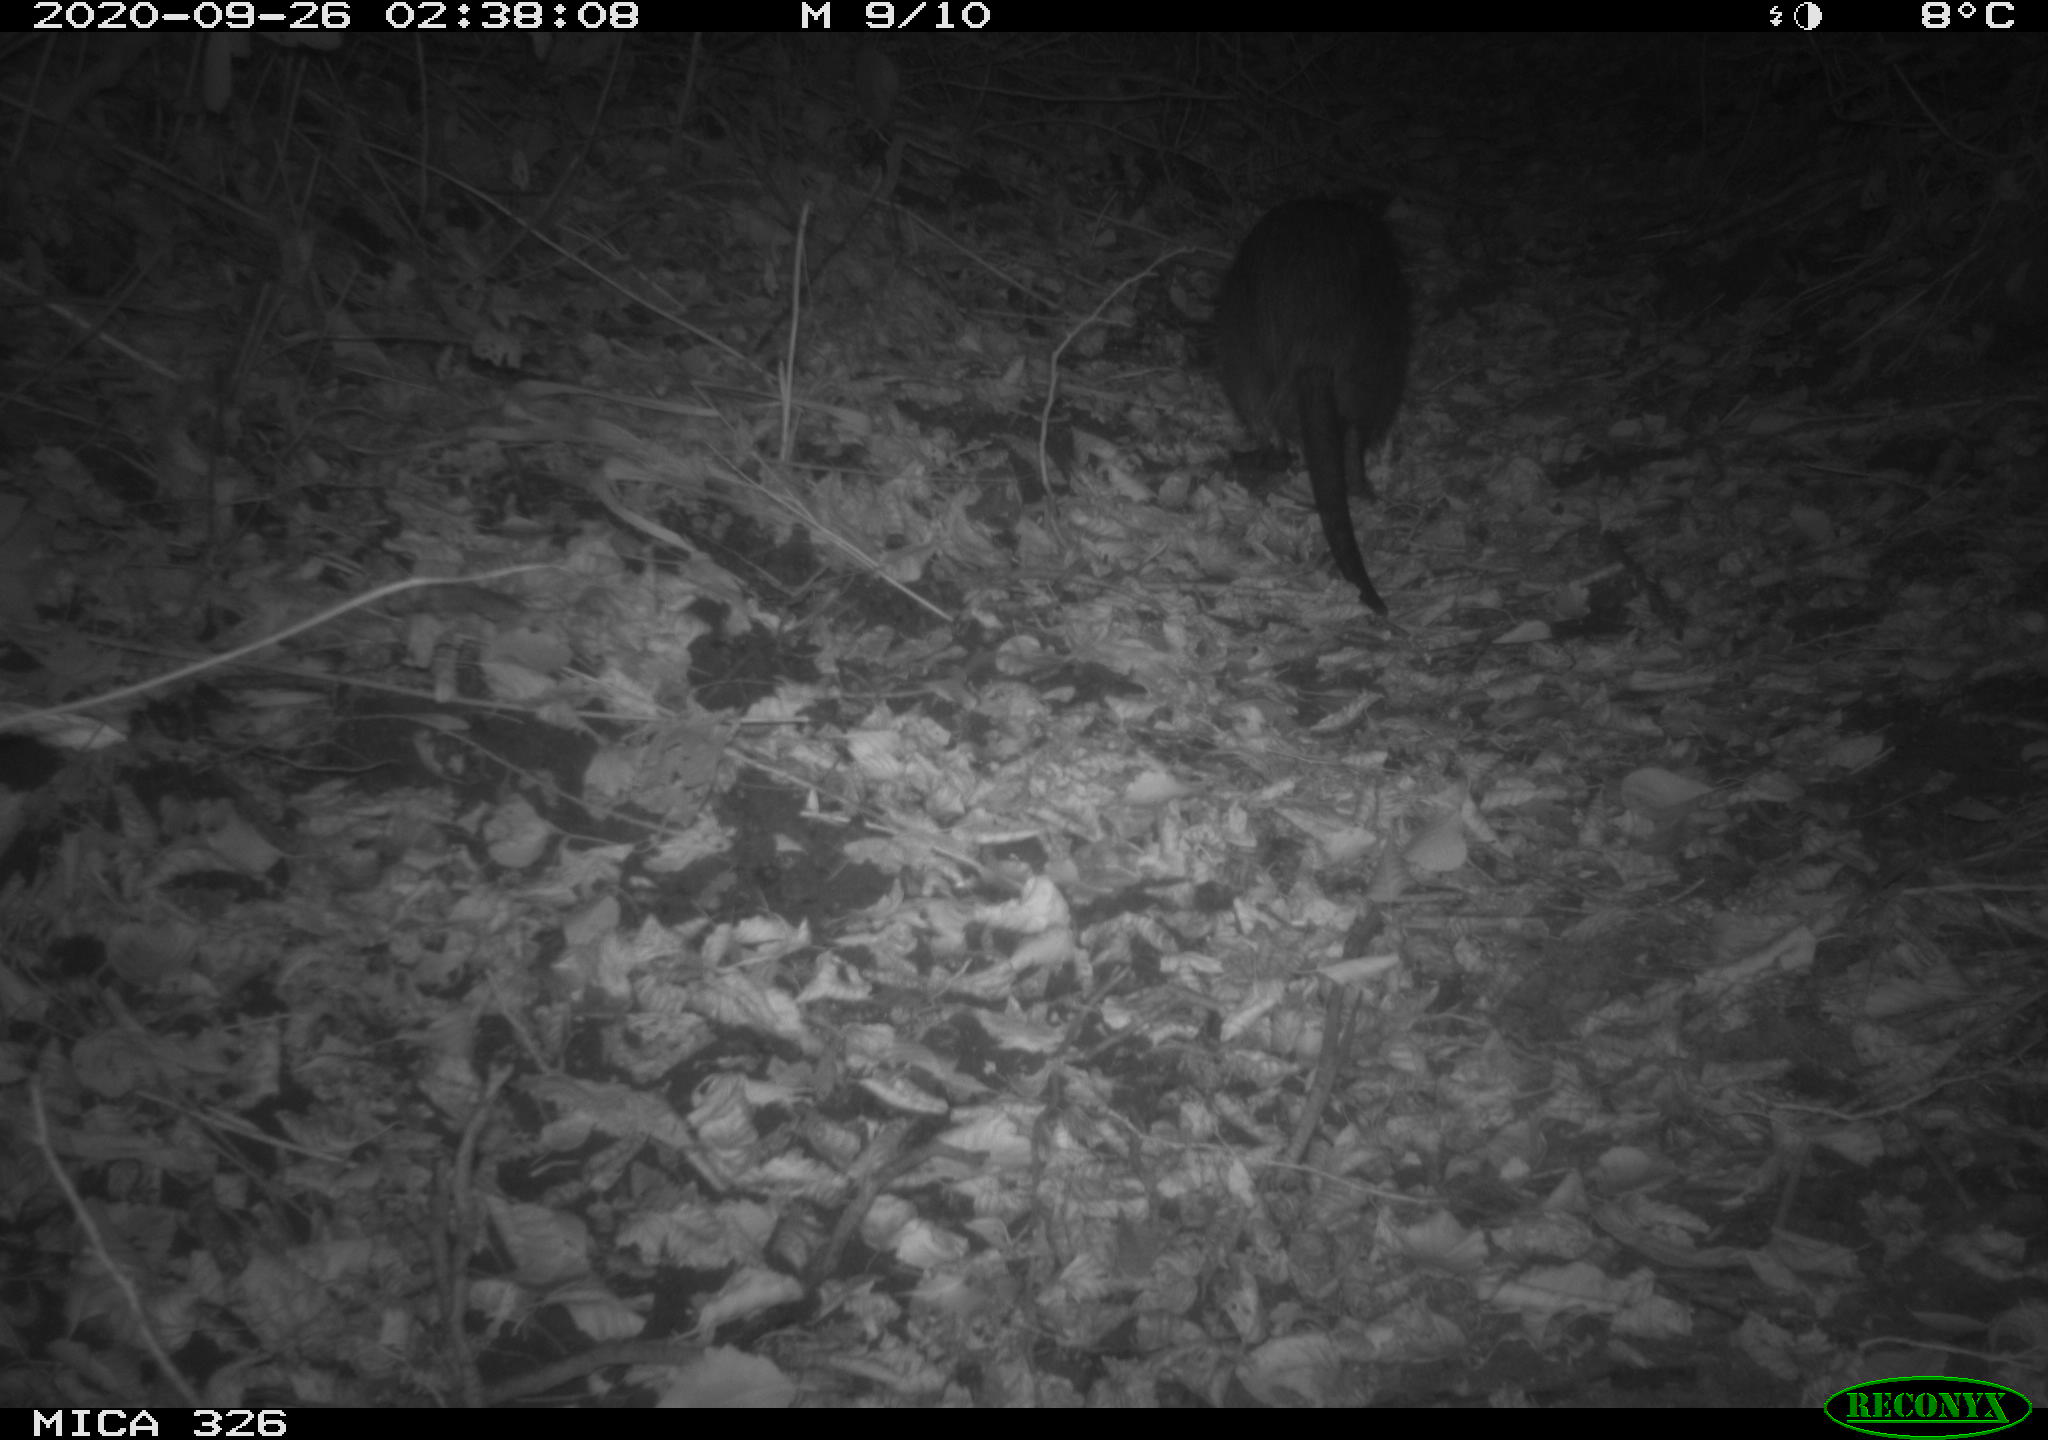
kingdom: Animalia
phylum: Chordata
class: Mammalia
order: Rodentia
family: Myocastoridae
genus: Myocastor
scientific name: Myocastor coypus
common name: Coypu
